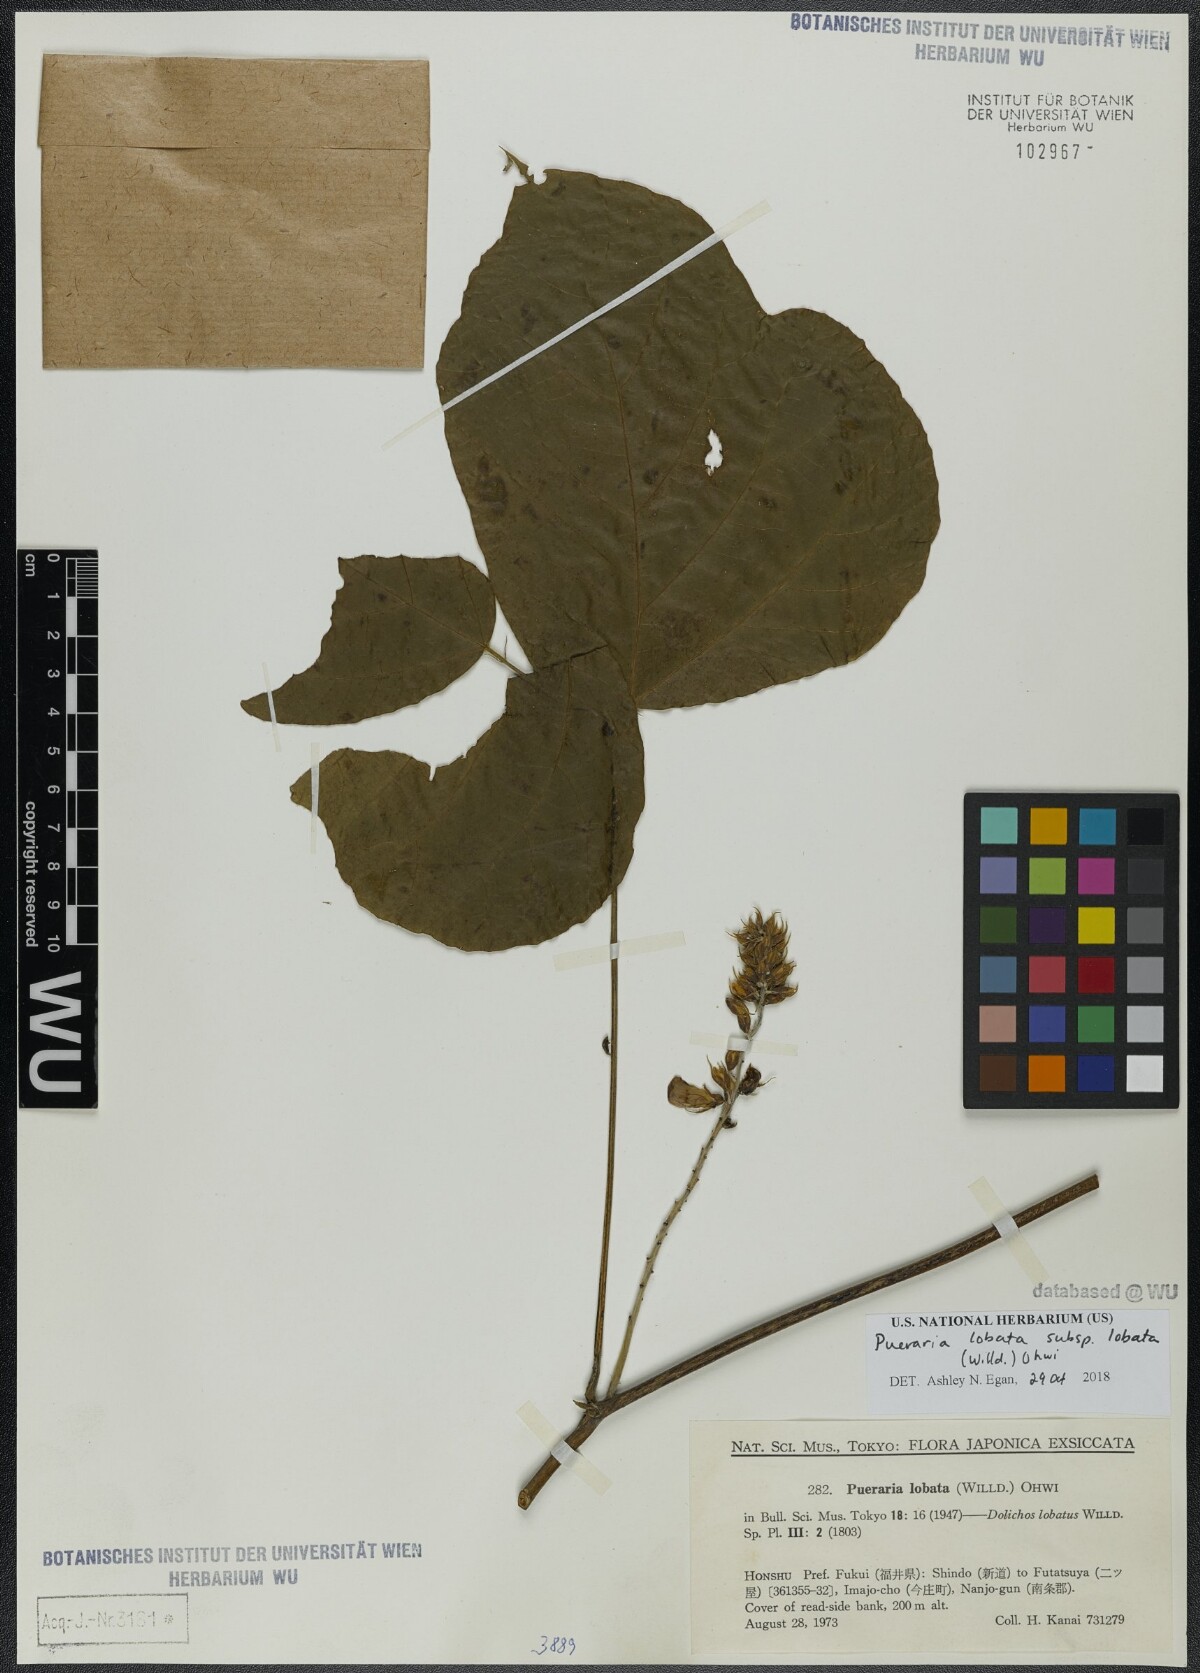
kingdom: Plantae
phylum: Tracheophyta
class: Magnoliopsida
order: Fabales
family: Fabaceae
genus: Pueraria
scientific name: Pueraria montana
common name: Kudzu
